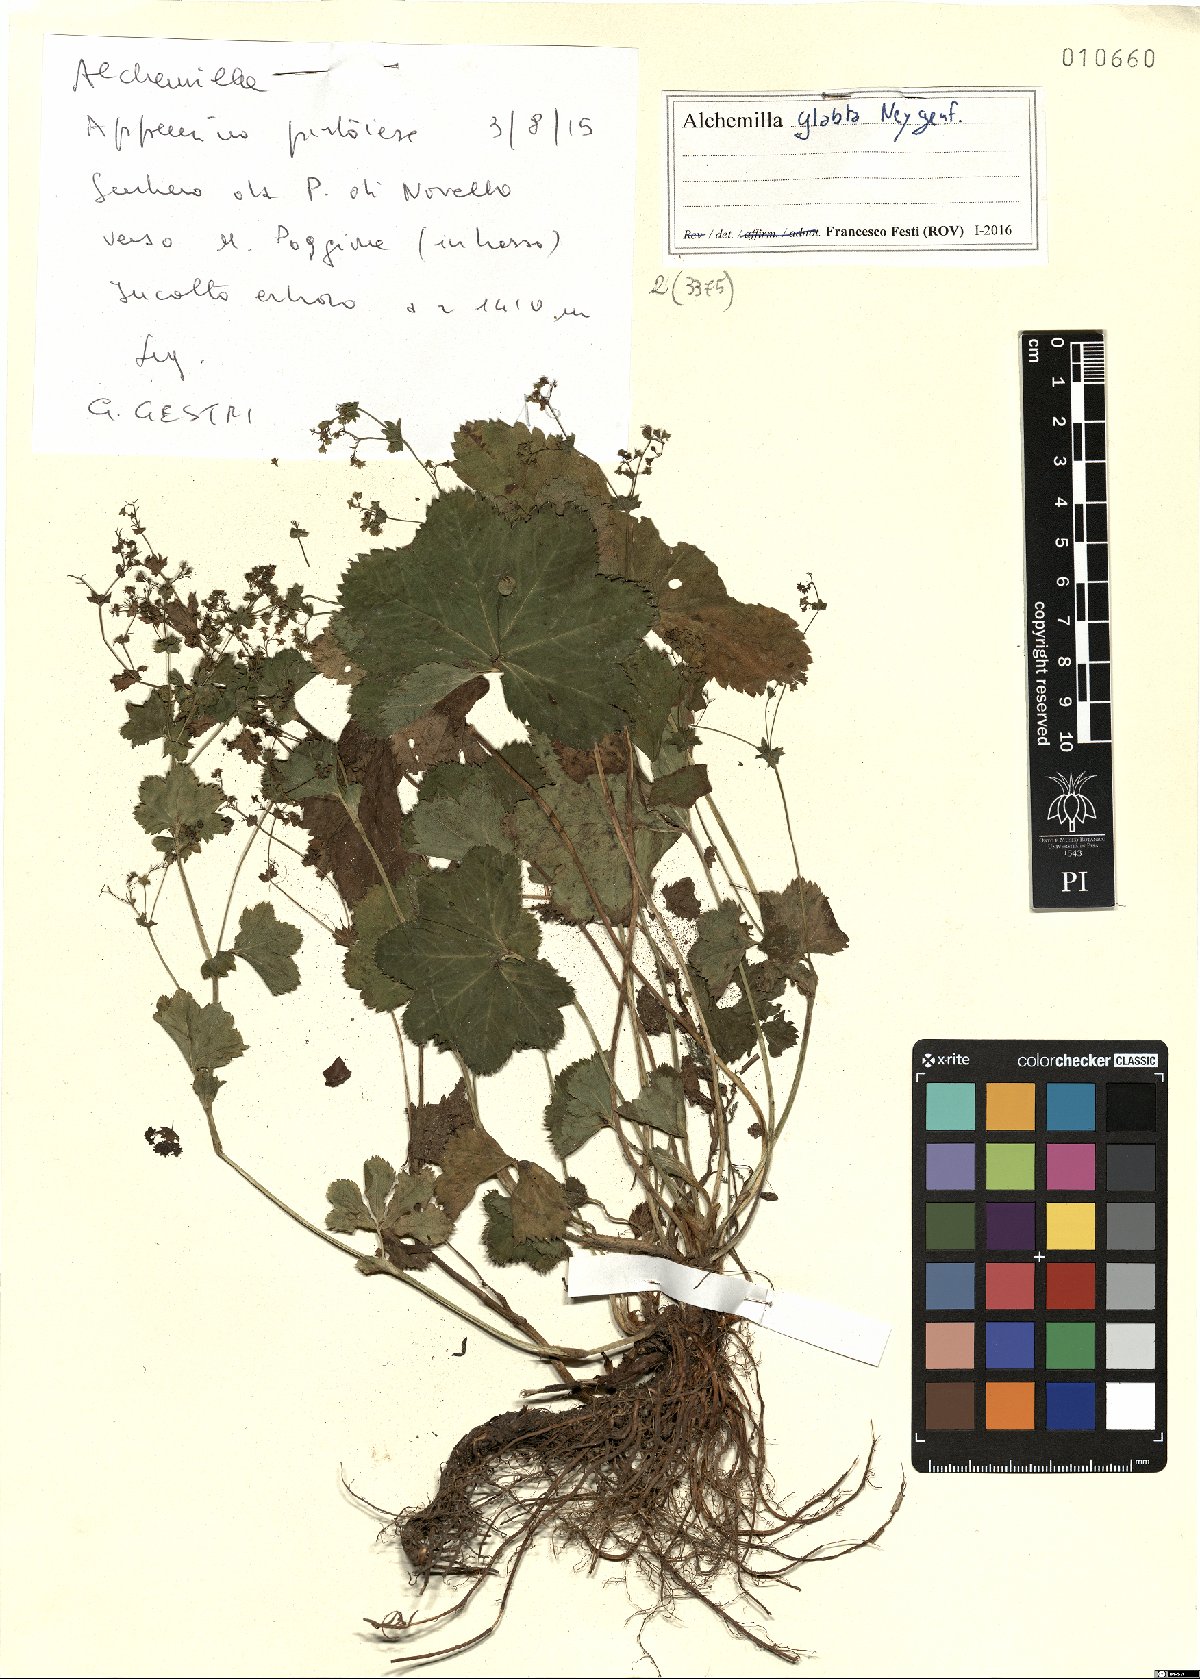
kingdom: Plantae
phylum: Tracheophyta
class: Magnoliopsida
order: Rosales
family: Rosaceae
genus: Alchemilla
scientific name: Alchemilla glabra
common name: Smooth lady's-mantle
